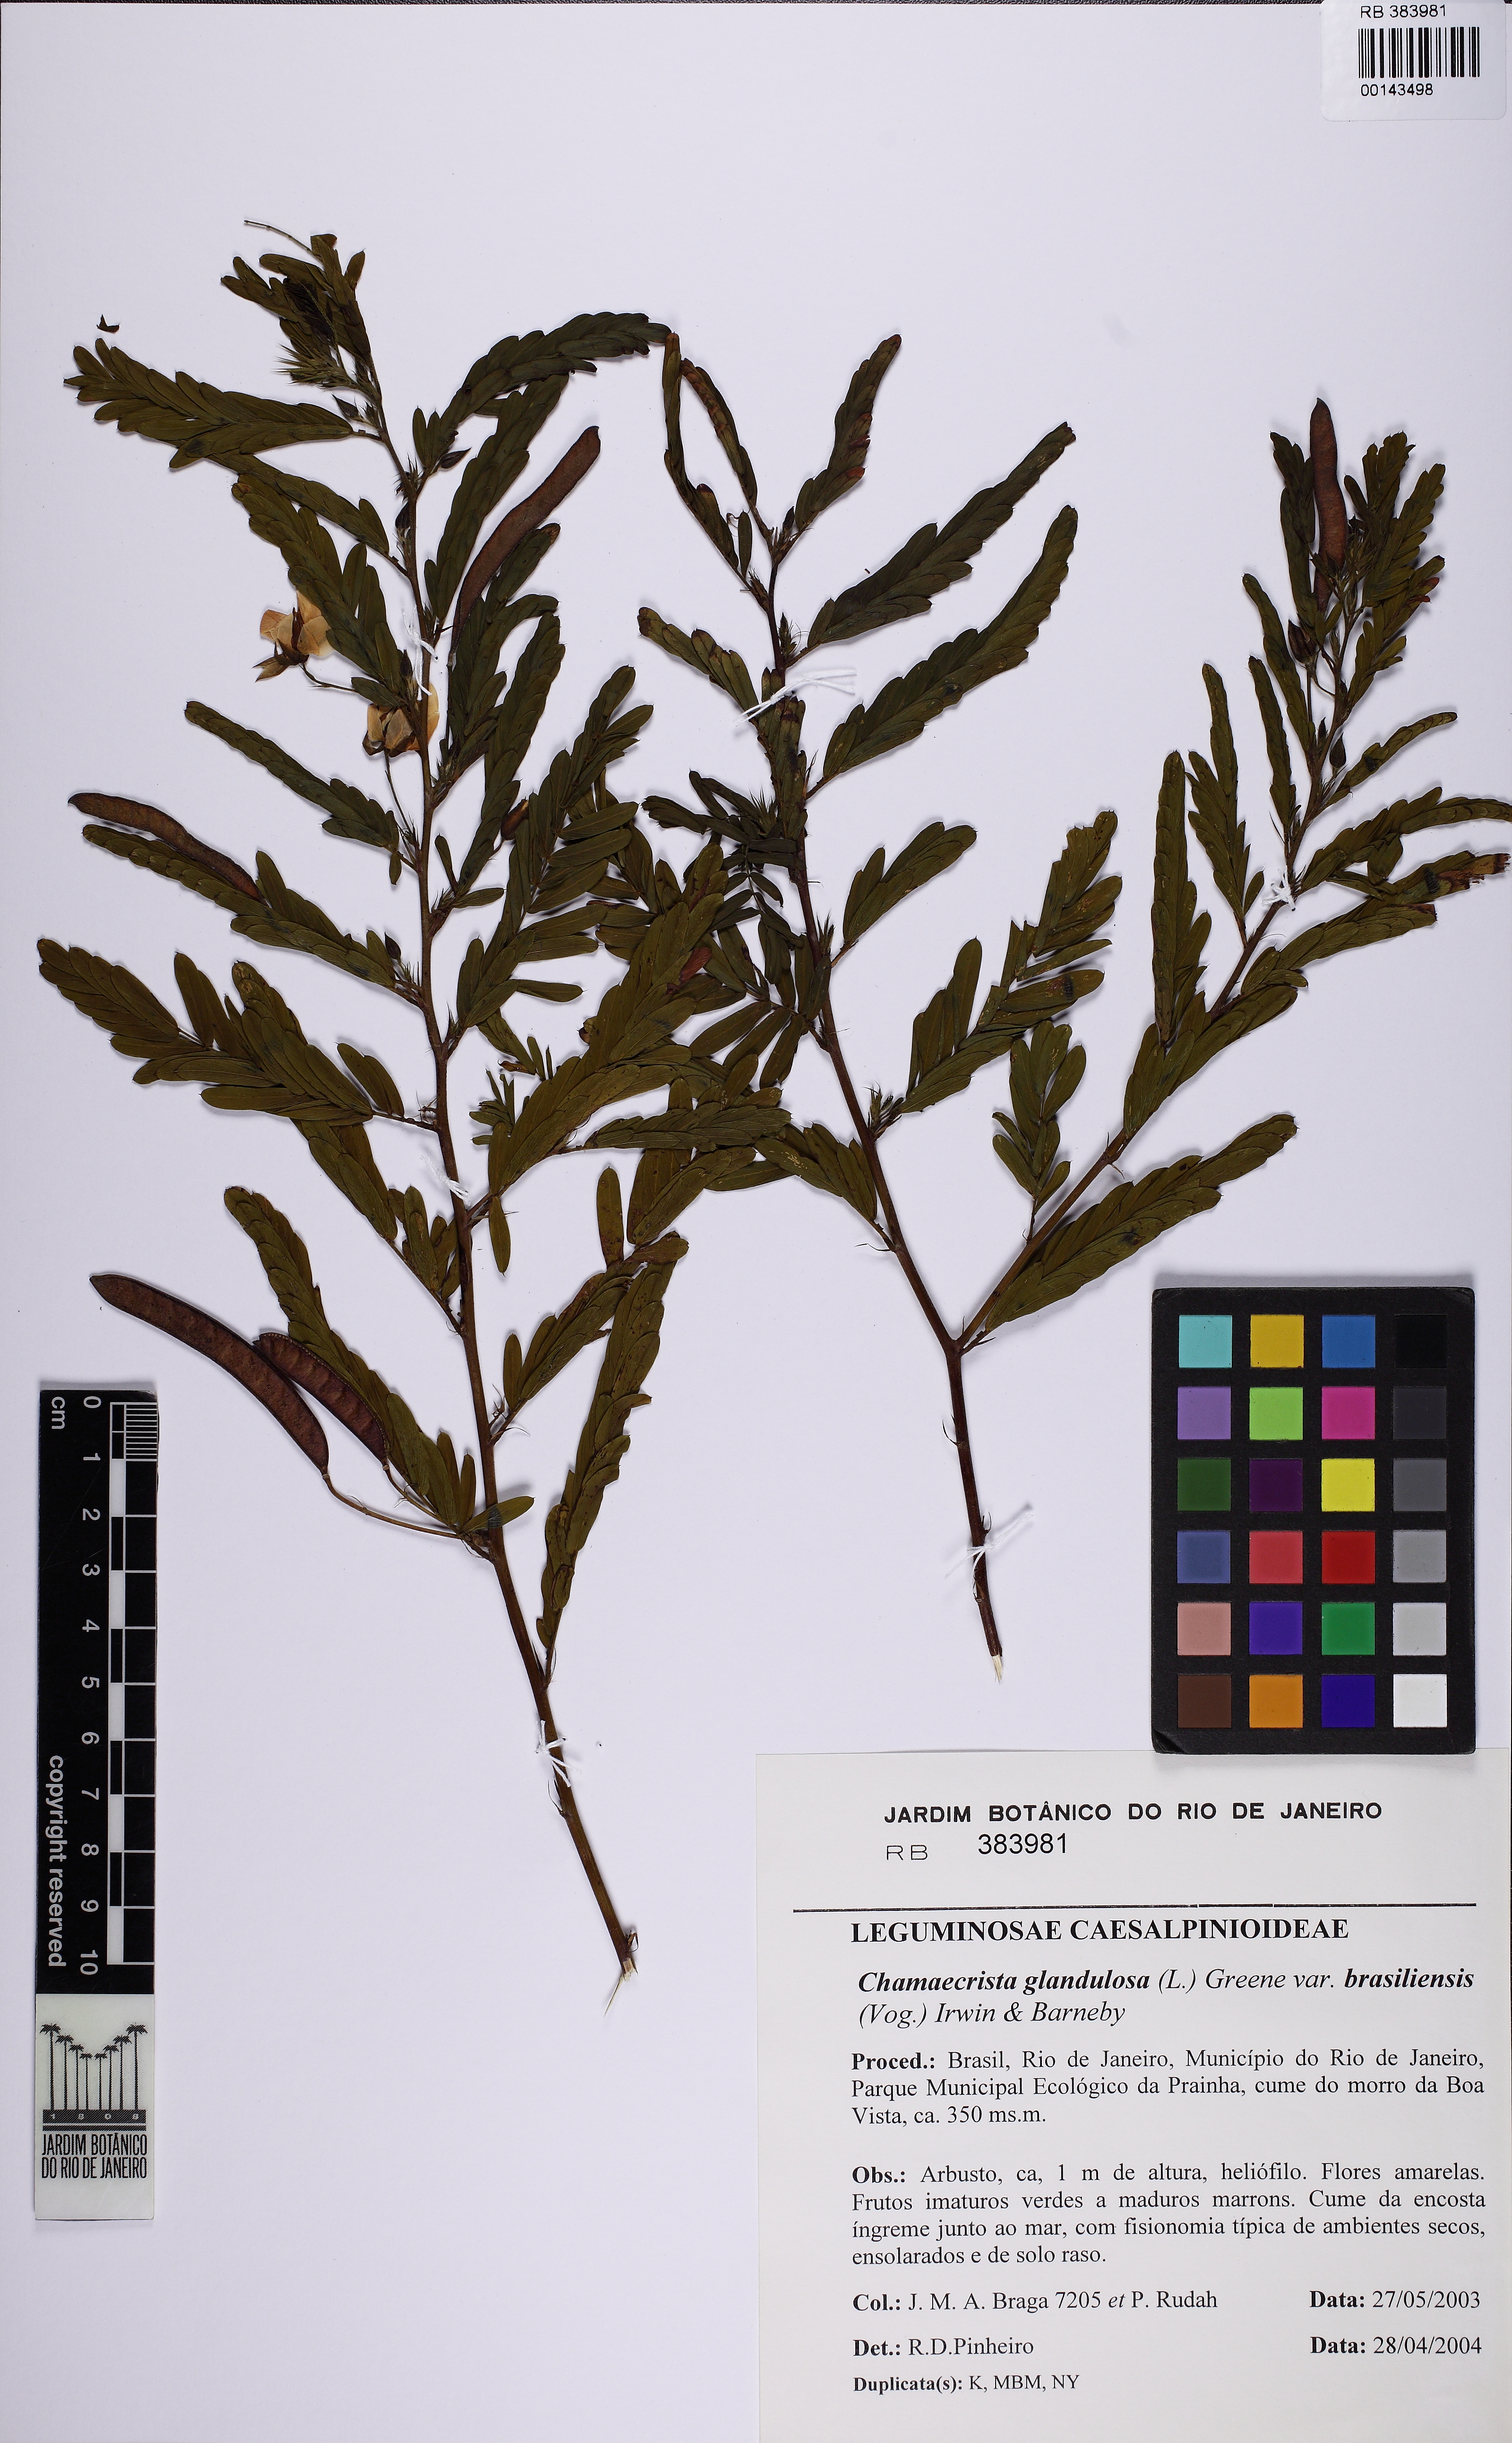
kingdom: Plantae
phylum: Tracheophyta
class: Magnoliopsida
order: Fabales
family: Fabaceae
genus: Chamaecrista
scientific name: Chamaecrista glandulosa
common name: Wild peas
